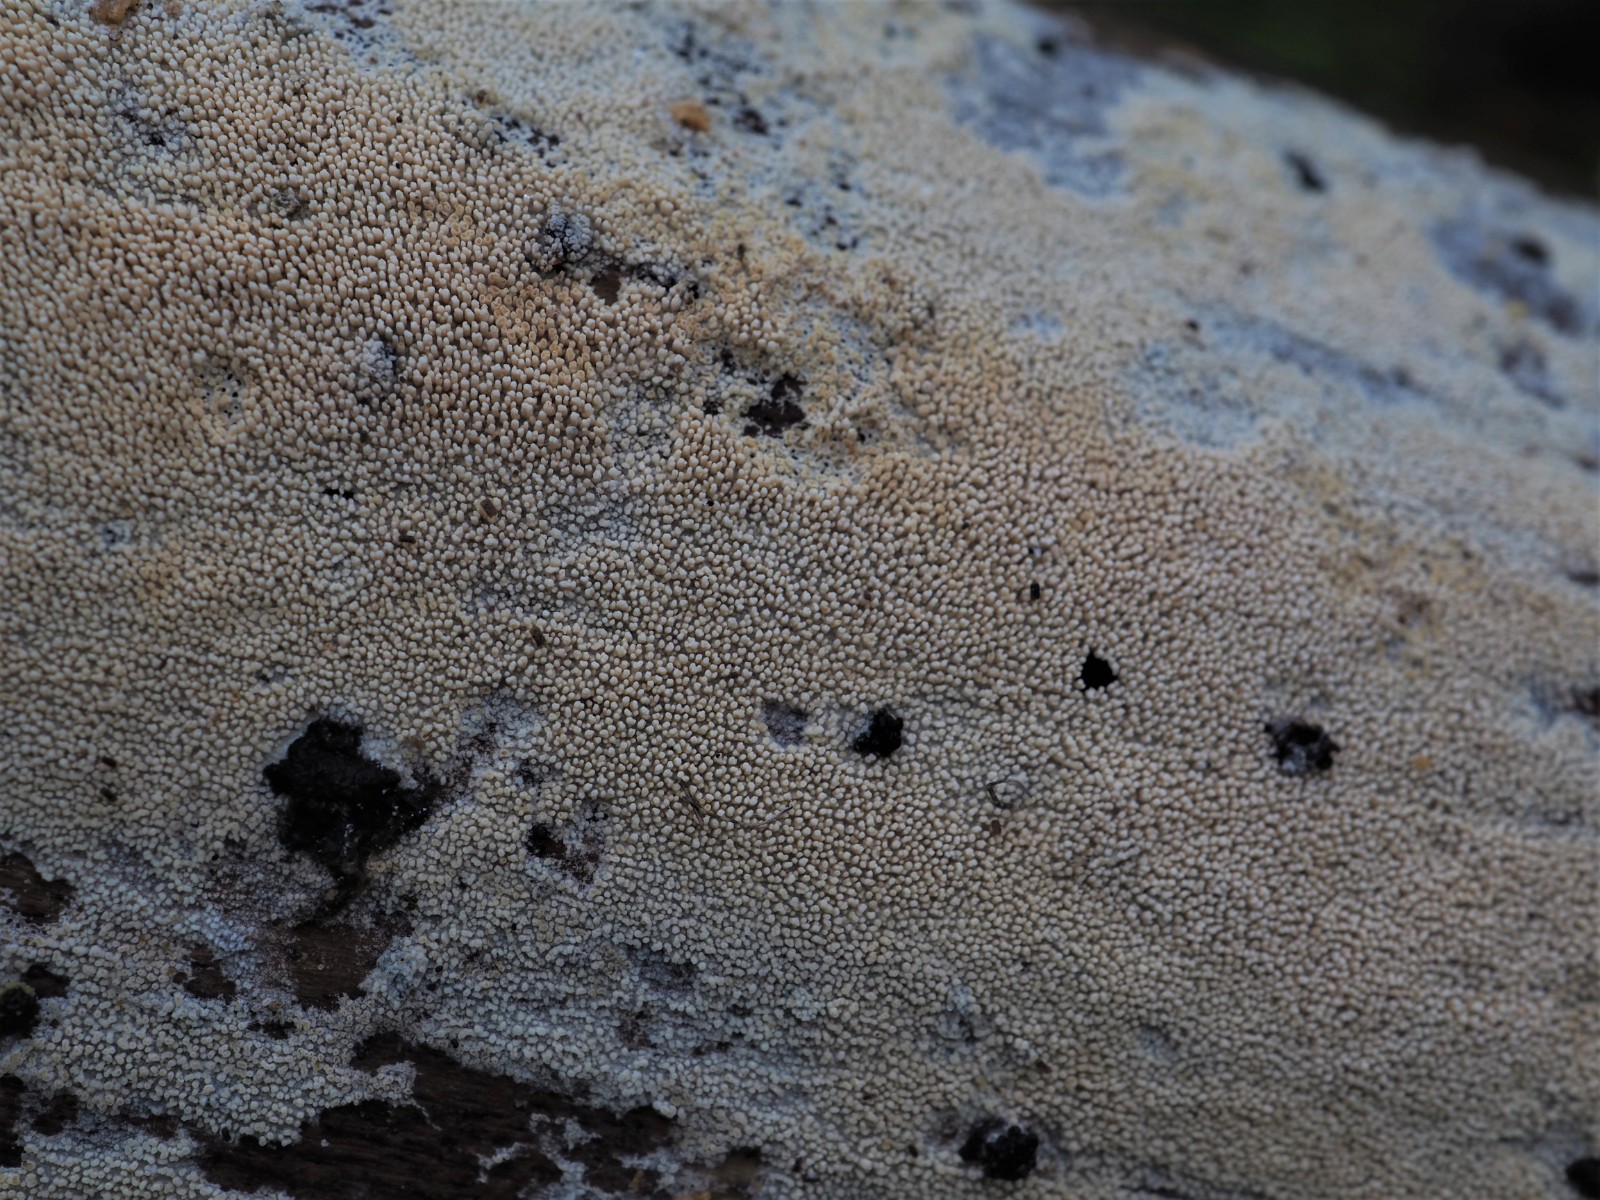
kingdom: Fungi
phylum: Basidiomycota
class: Agaricomycetes
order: Trechisporales
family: Sistotremataceae
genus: Trechispora
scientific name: Trechispora stevensonii
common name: støvende vathinde
